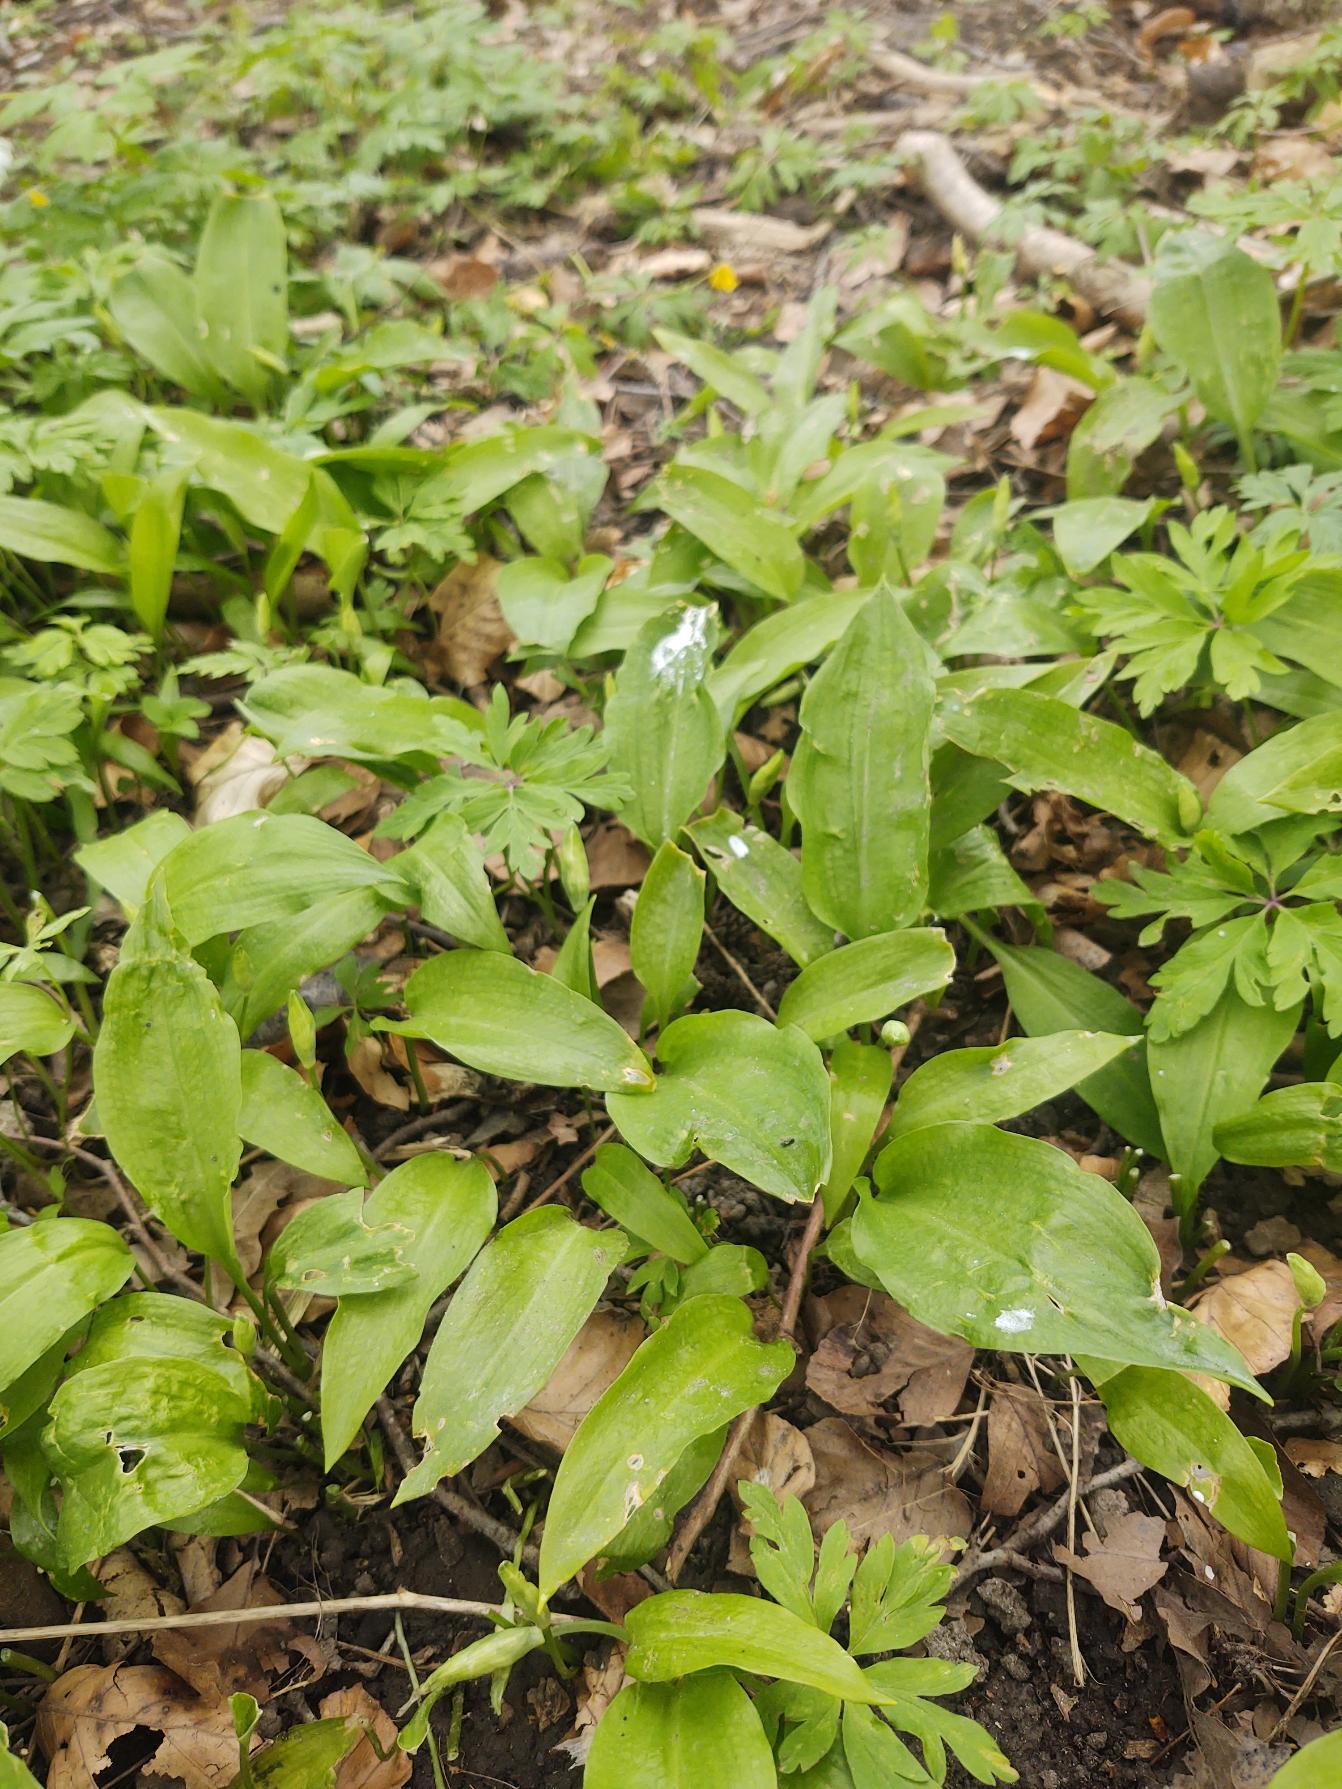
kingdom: Plantae
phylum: Tracheophyta
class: Liliopsida
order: Asparagales
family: Amaryllidaceae
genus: Allium
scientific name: Allium ursinum
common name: Rams-løg
